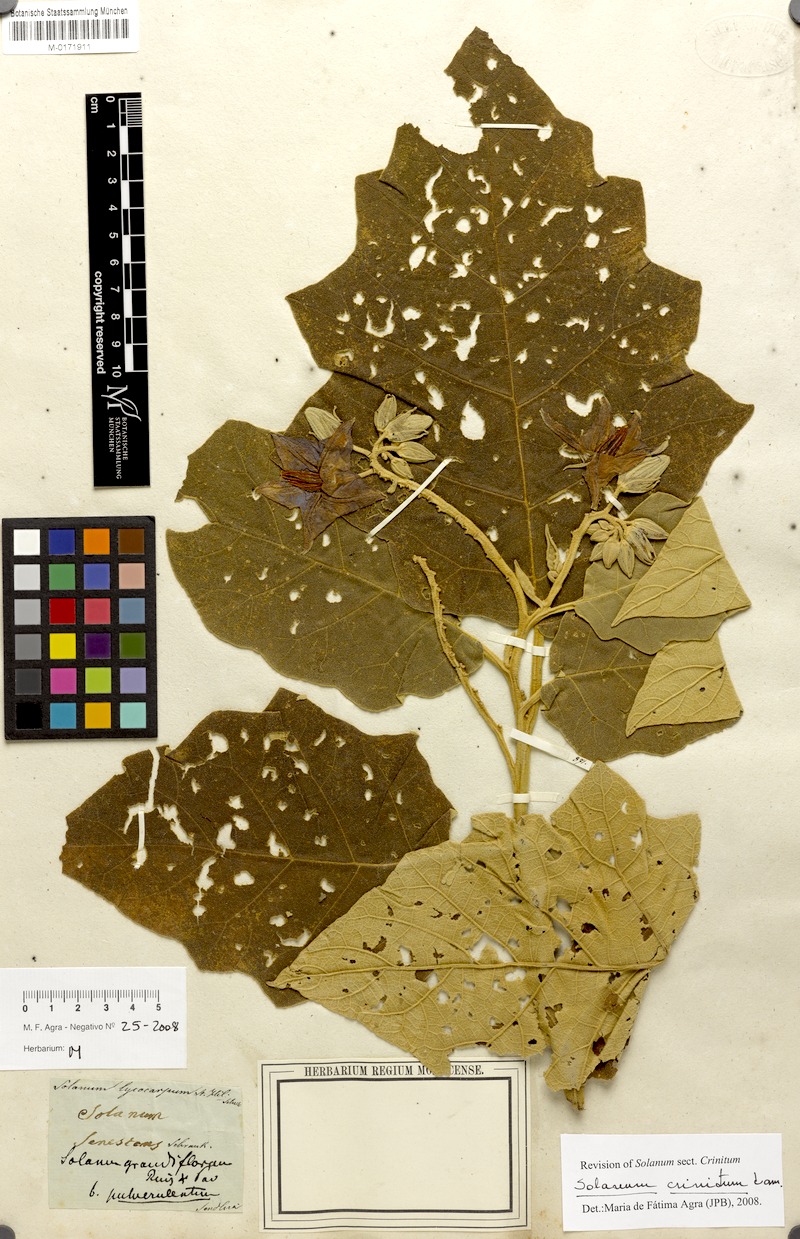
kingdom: Plantae
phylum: Tracheophyta
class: Magnoliopsida
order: Solanales
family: Solanaceae
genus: Solanum
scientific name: Solanum crinitum
